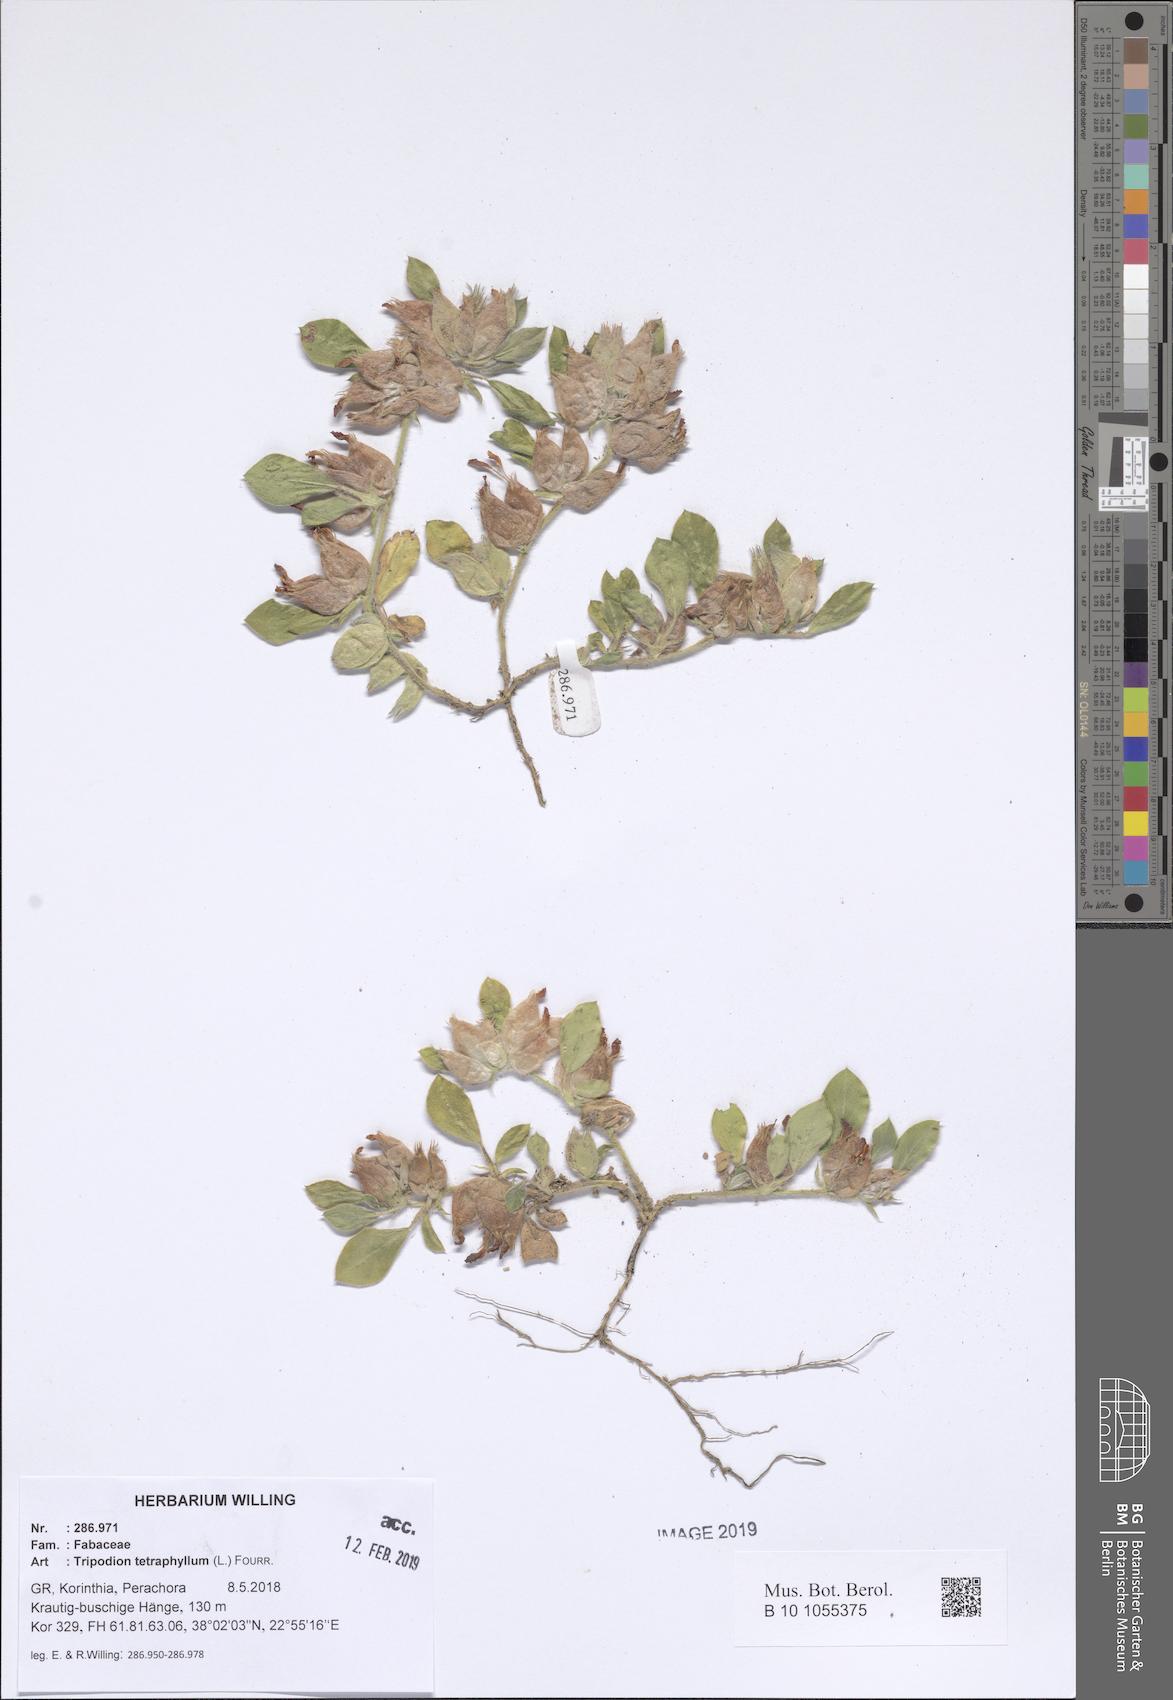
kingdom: Plantae
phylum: Tracheophyta
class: Magnoliopsida
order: Fabales
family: Fabaceae
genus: Tripodion
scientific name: Tripodion tetraphyllum
